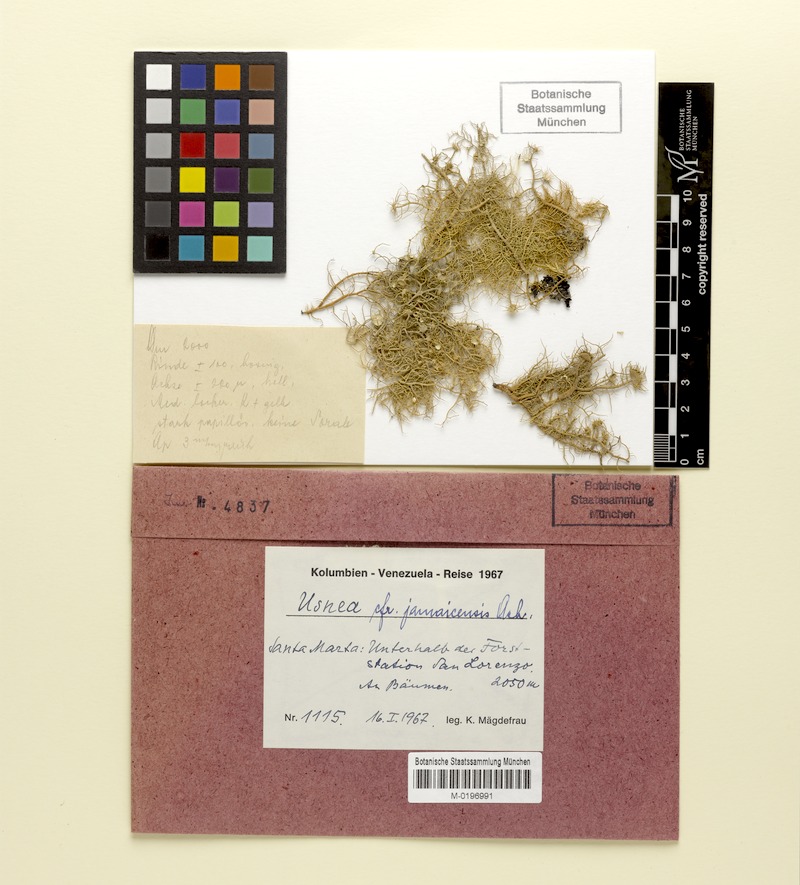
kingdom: Fungi
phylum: Ascomycota
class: Lecanoromycetes
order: Lecanorales
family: Parmeliaceae
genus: Usnea
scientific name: Usnea jamaicensis
